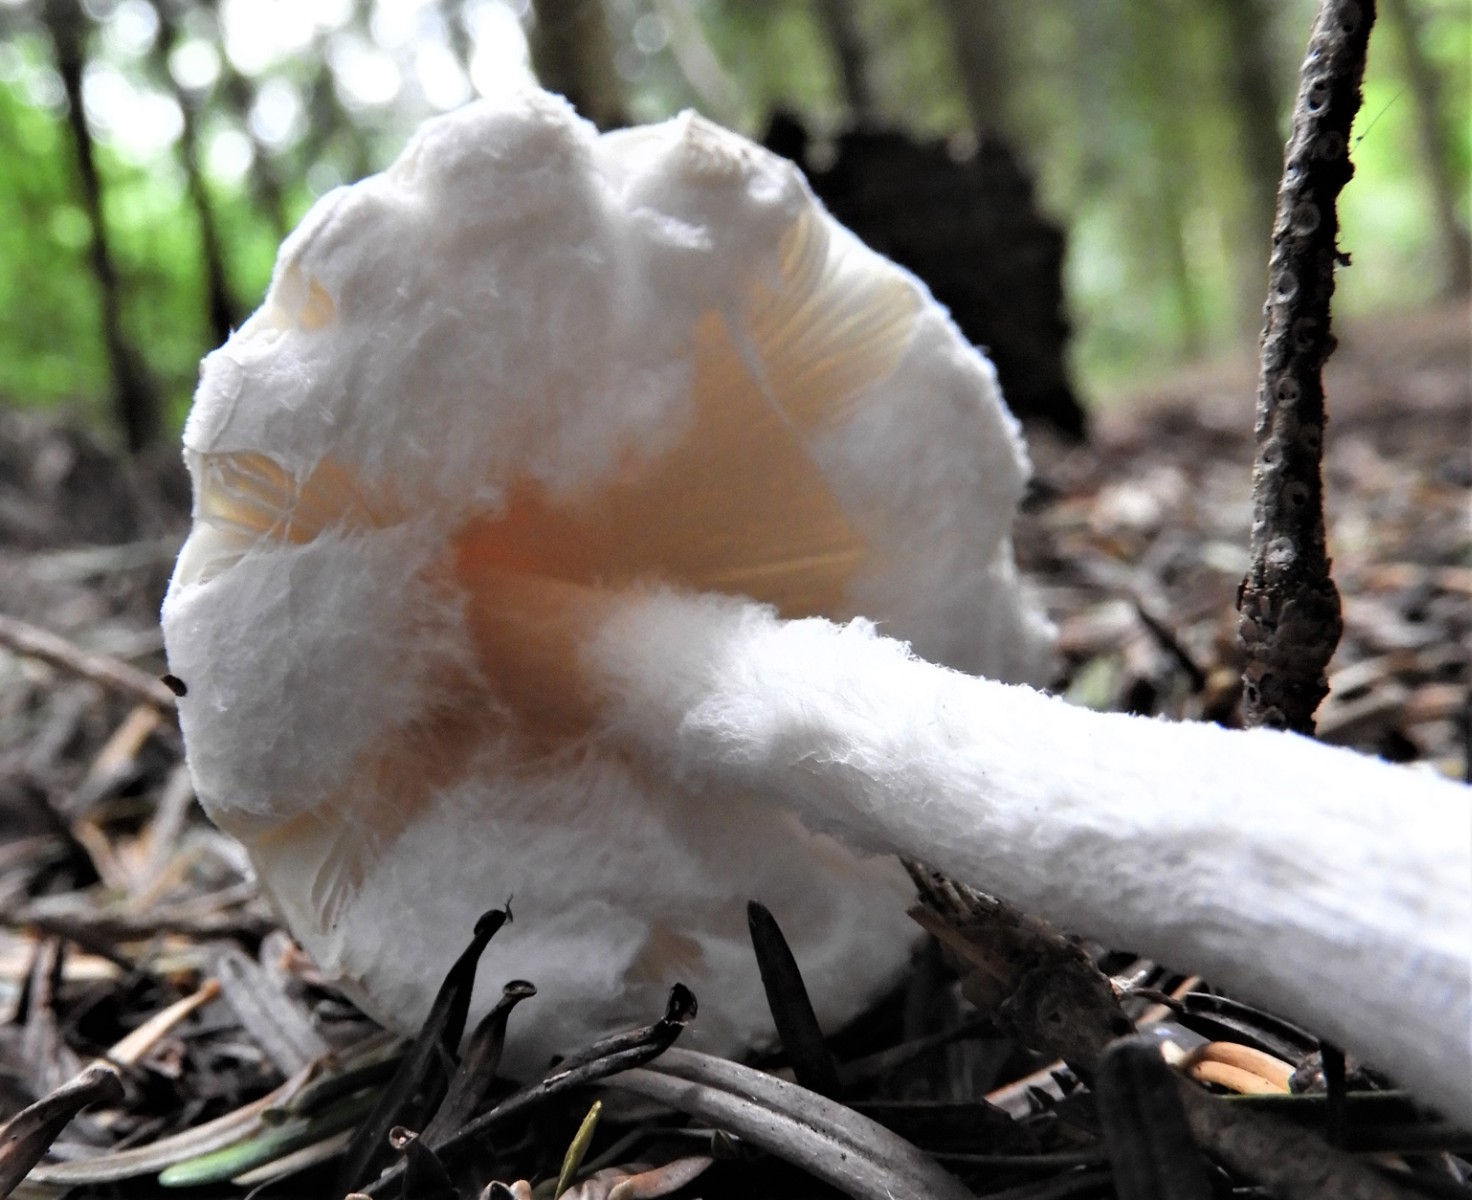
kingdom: Fungi
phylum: Basidiomycota
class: Agaricomycetes
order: Agaricales
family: Agaricaceae
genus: Lepiota
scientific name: Lepiota clypeolaria
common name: flosset parasolhat
